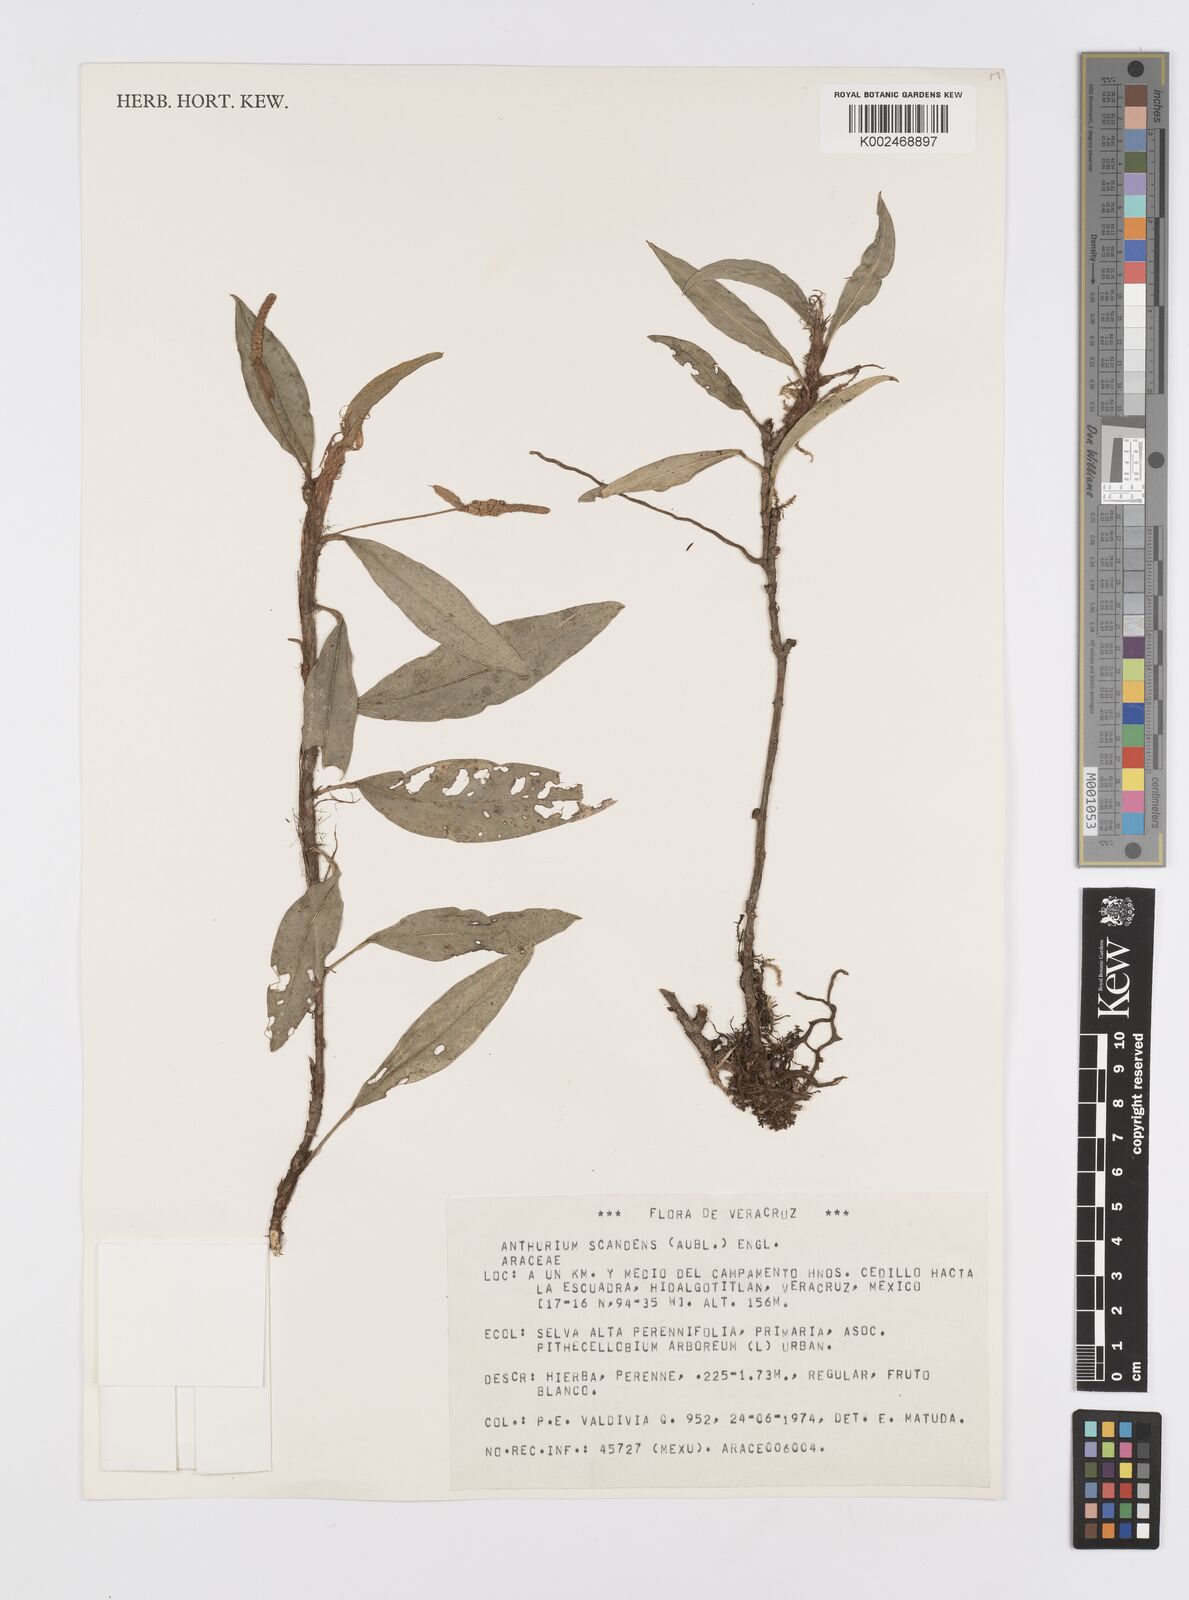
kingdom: Plantae
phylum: Tracheophyta
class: Liliopsida
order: Alismatales
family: Araceae
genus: Anthurium
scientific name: Anthurium scandens
